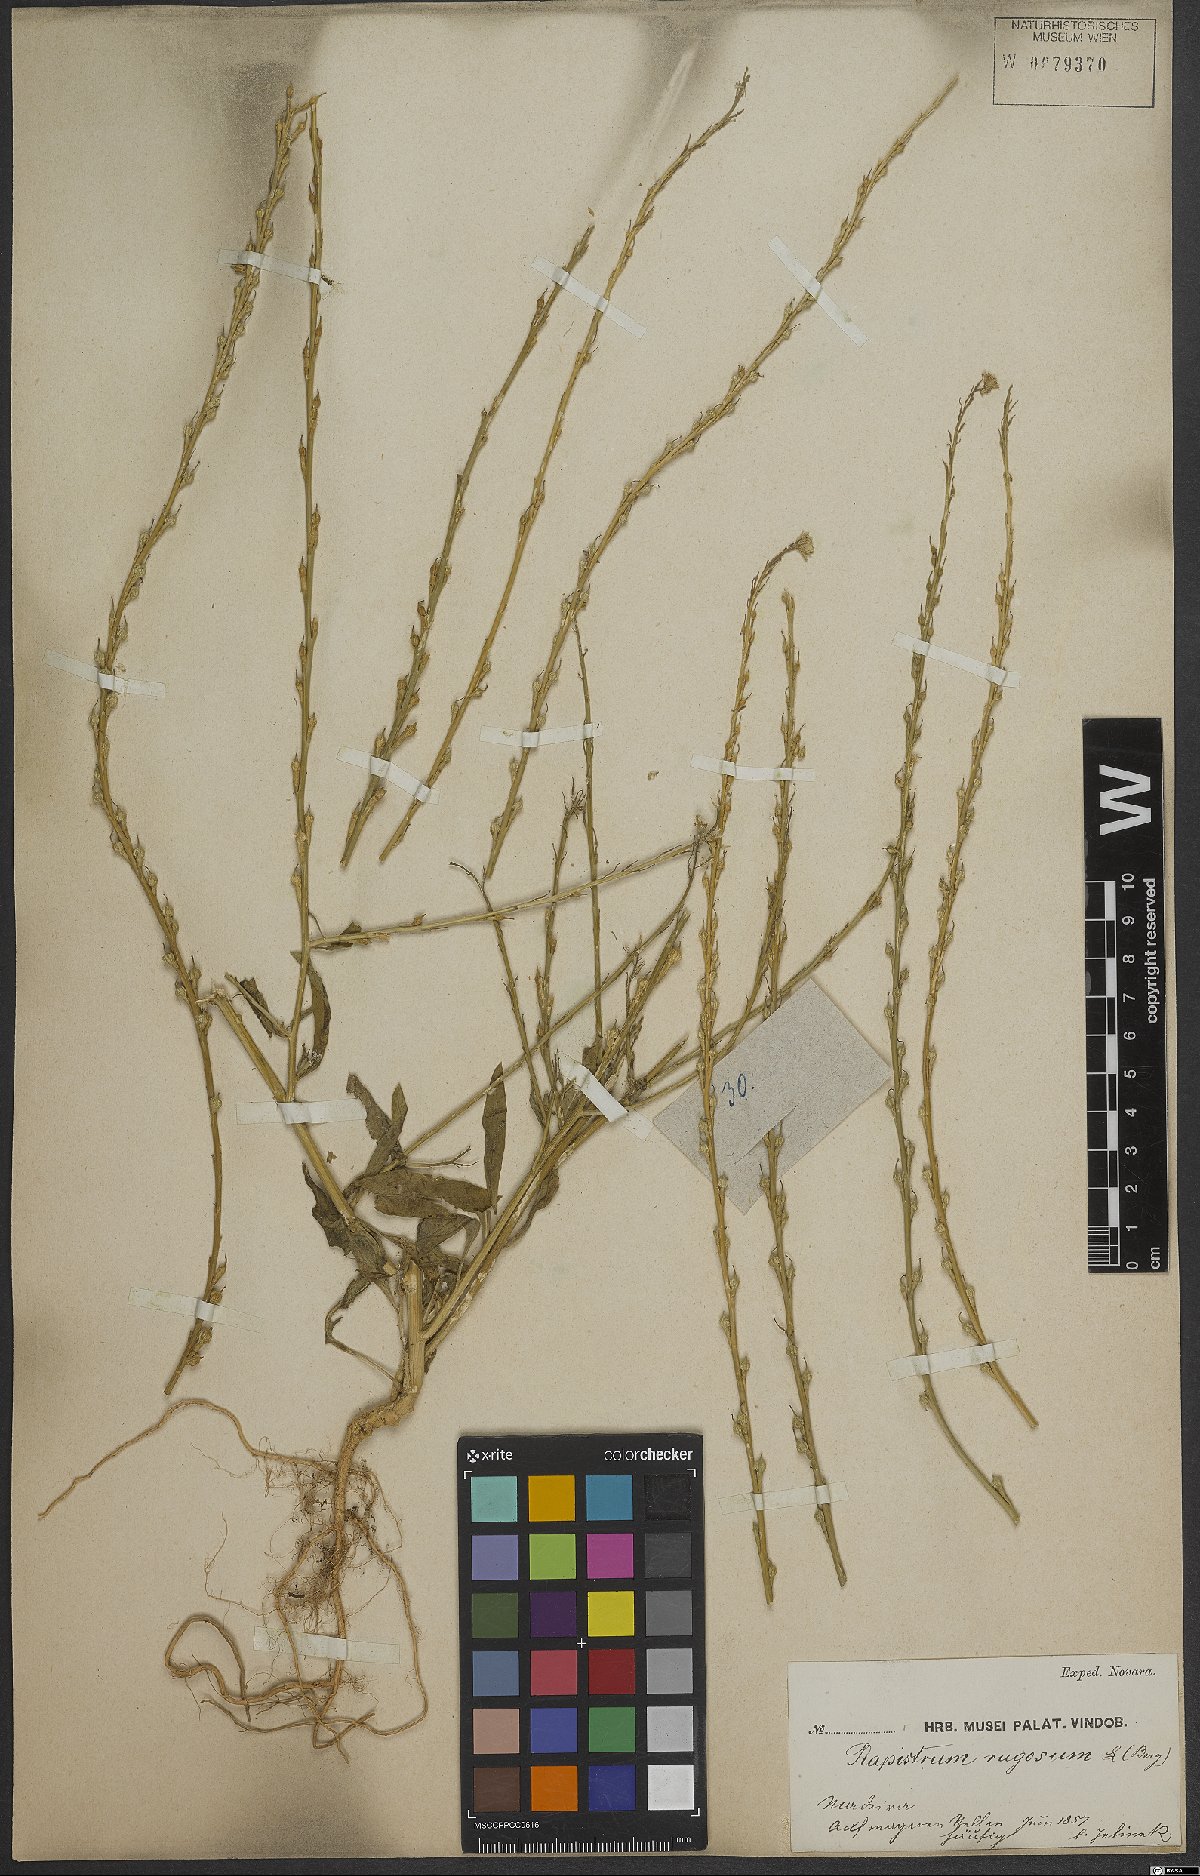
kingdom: Plantae
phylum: Tracheophyta
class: Magnoliopsida
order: Brassicales
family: Brassicaceae
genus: Rapistrum
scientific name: Rapistrum rugosum
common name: Annual bastardcabbage
